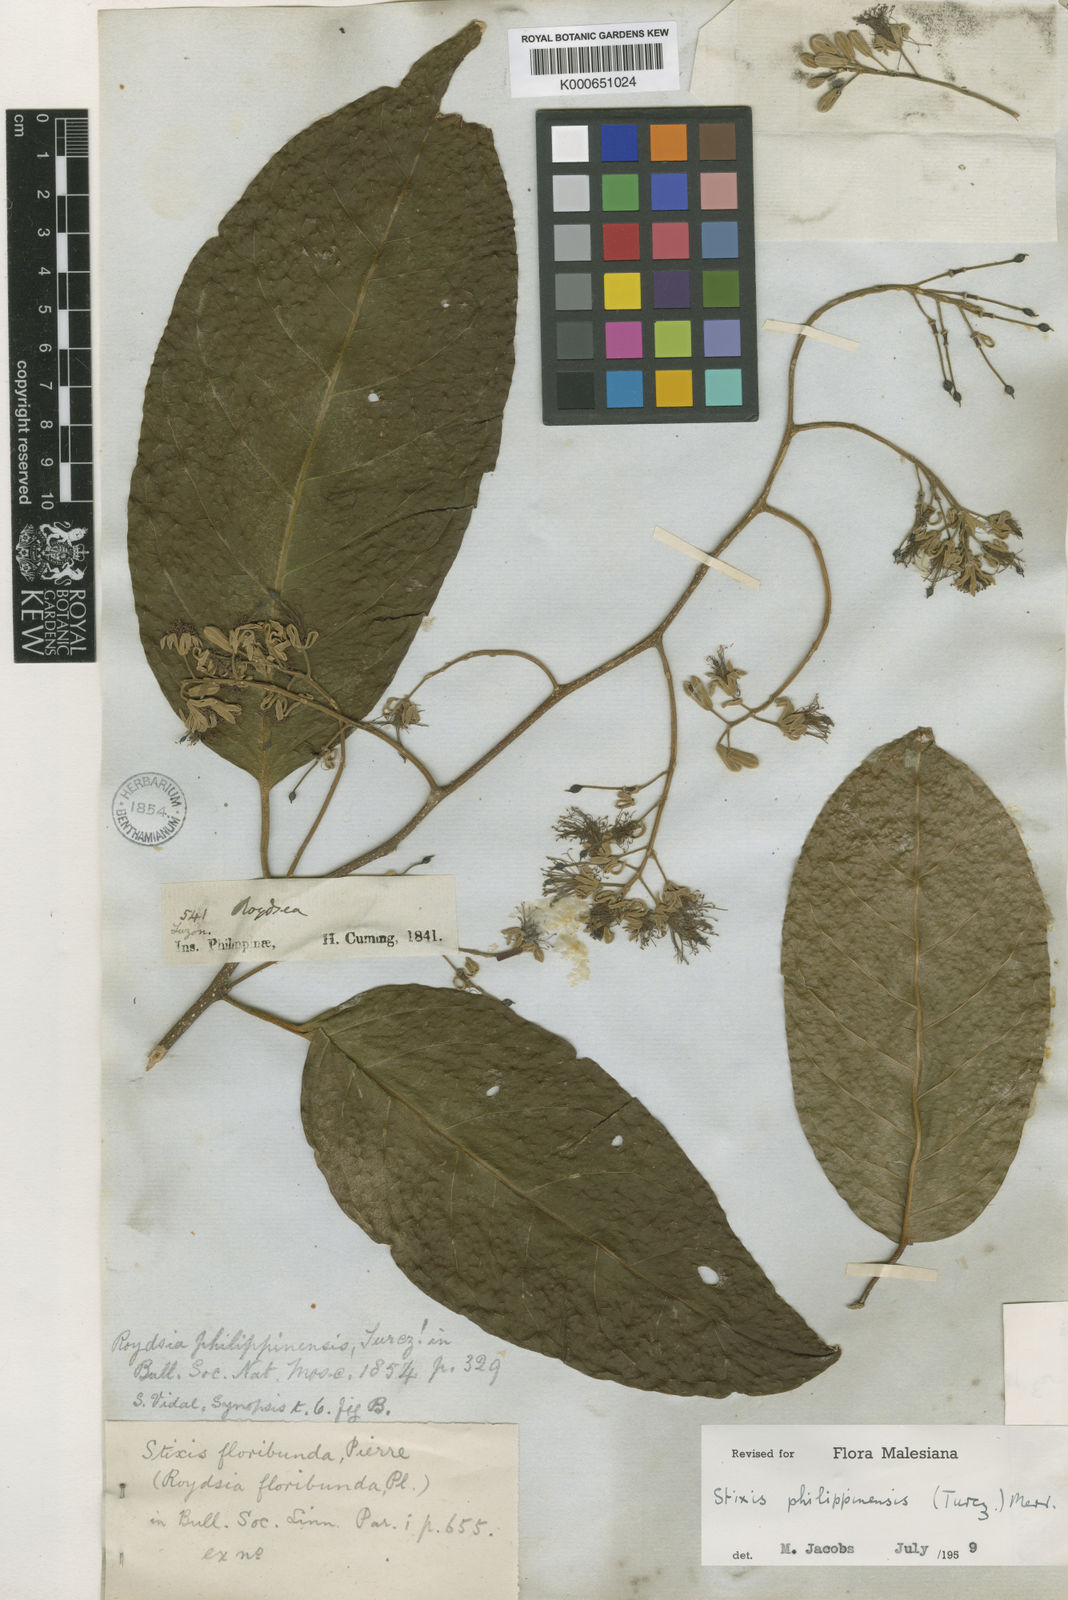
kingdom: Plantae
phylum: Tracheophyta
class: Magnoliopsida
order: Brassicales
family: Stixaceae
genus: Stixis
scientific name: Stixis philippinensis
